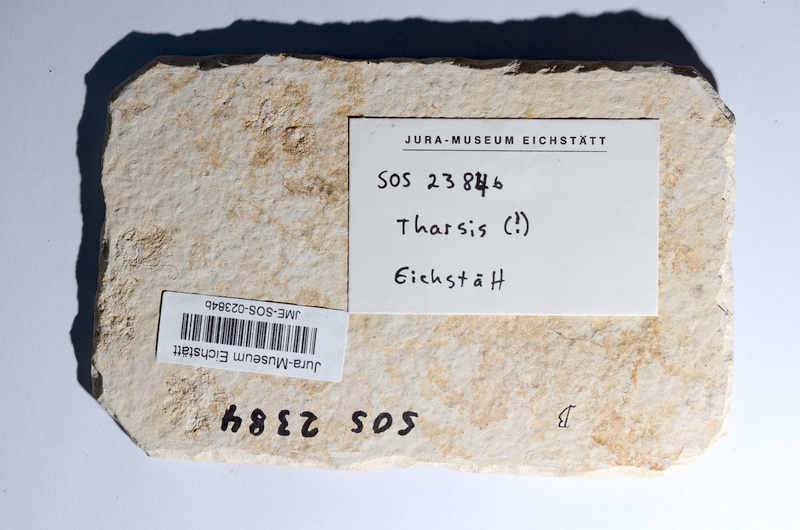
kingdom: Animalia
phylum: Chordata
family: Ascalaboidae
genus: Tharsis
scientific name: Tharsis dubius
